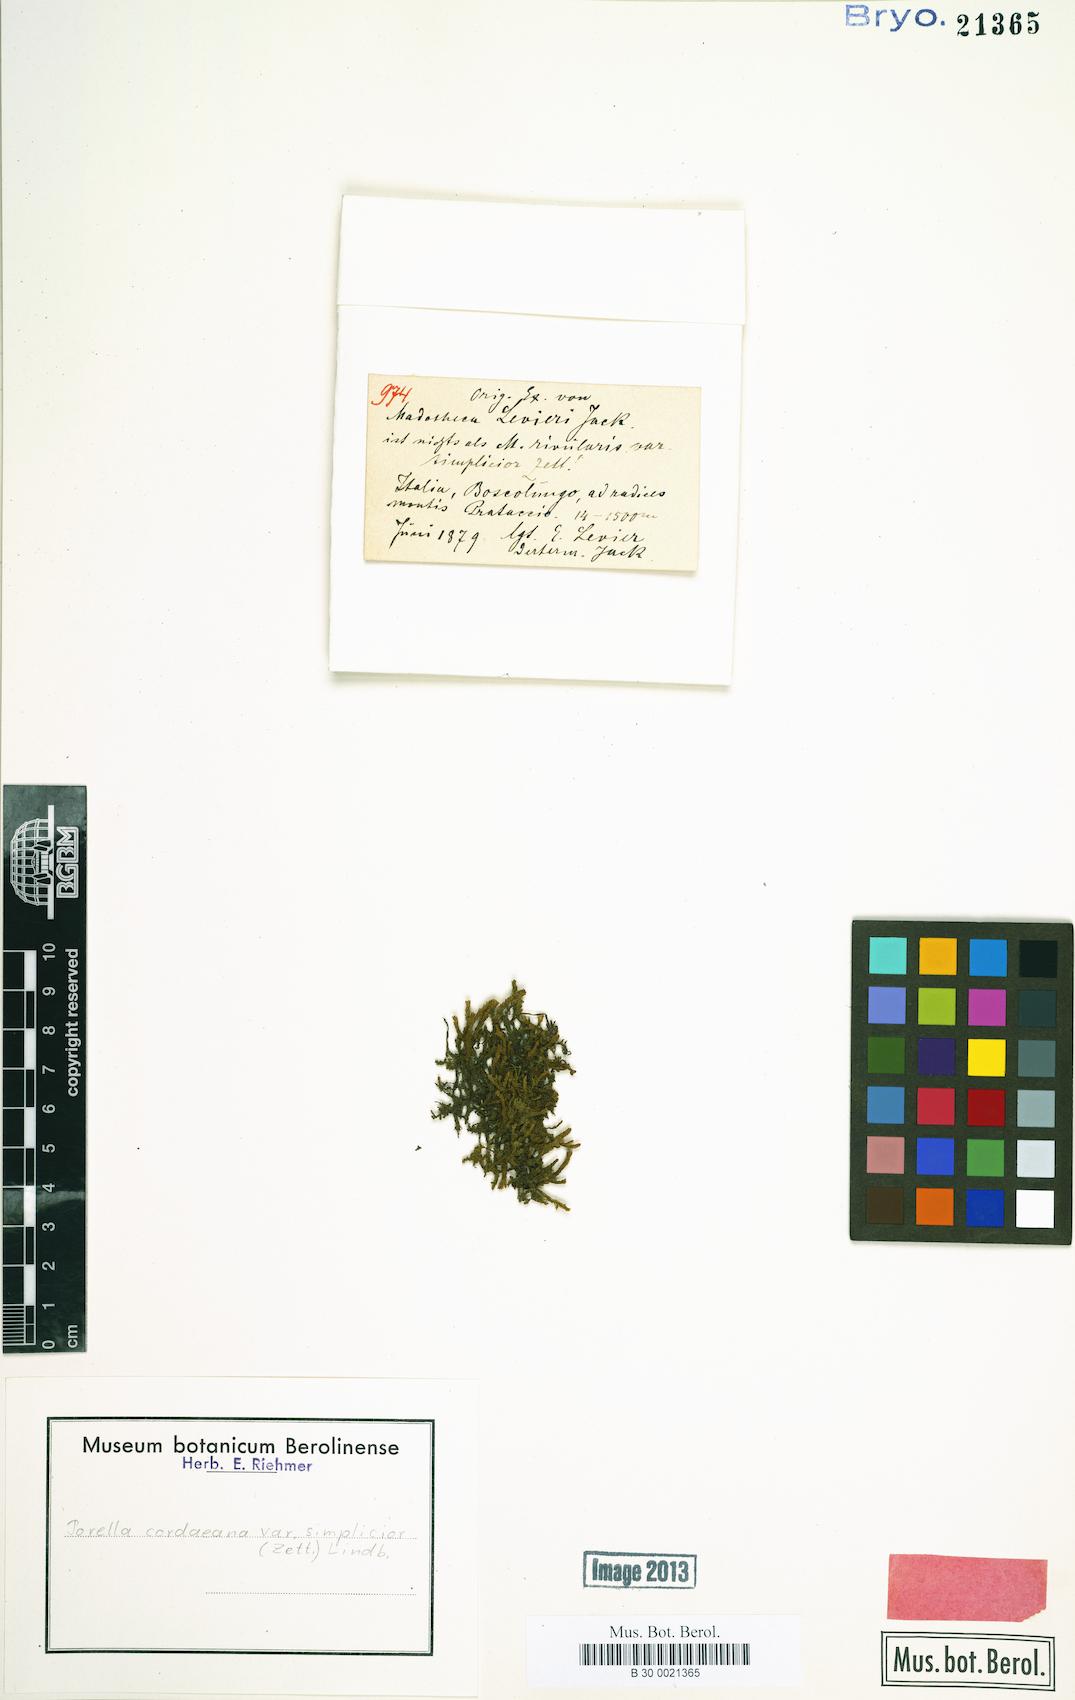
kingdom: Plantae
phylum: Marchantiophyta
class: Jungermanniopsida
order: Porellales
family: Porellaceae
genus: Porella
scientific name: Porella cordaeana
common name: Cliff scalewort
